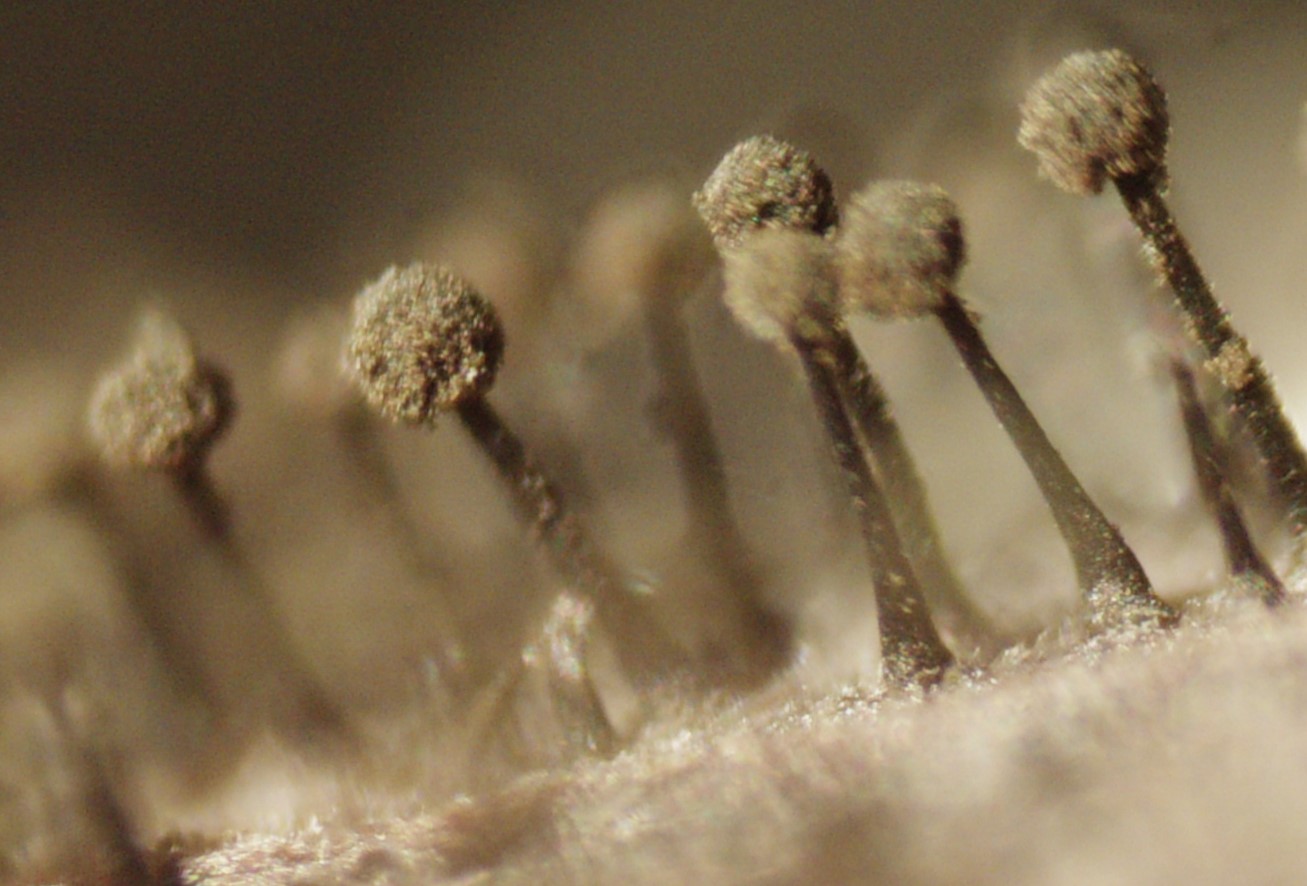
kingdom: Fungi
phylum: Ascomycota
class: Dothideomycetes
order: Pleosporales
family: Melanommataceae
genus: Seifertia
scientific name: Seifertia azaleae
